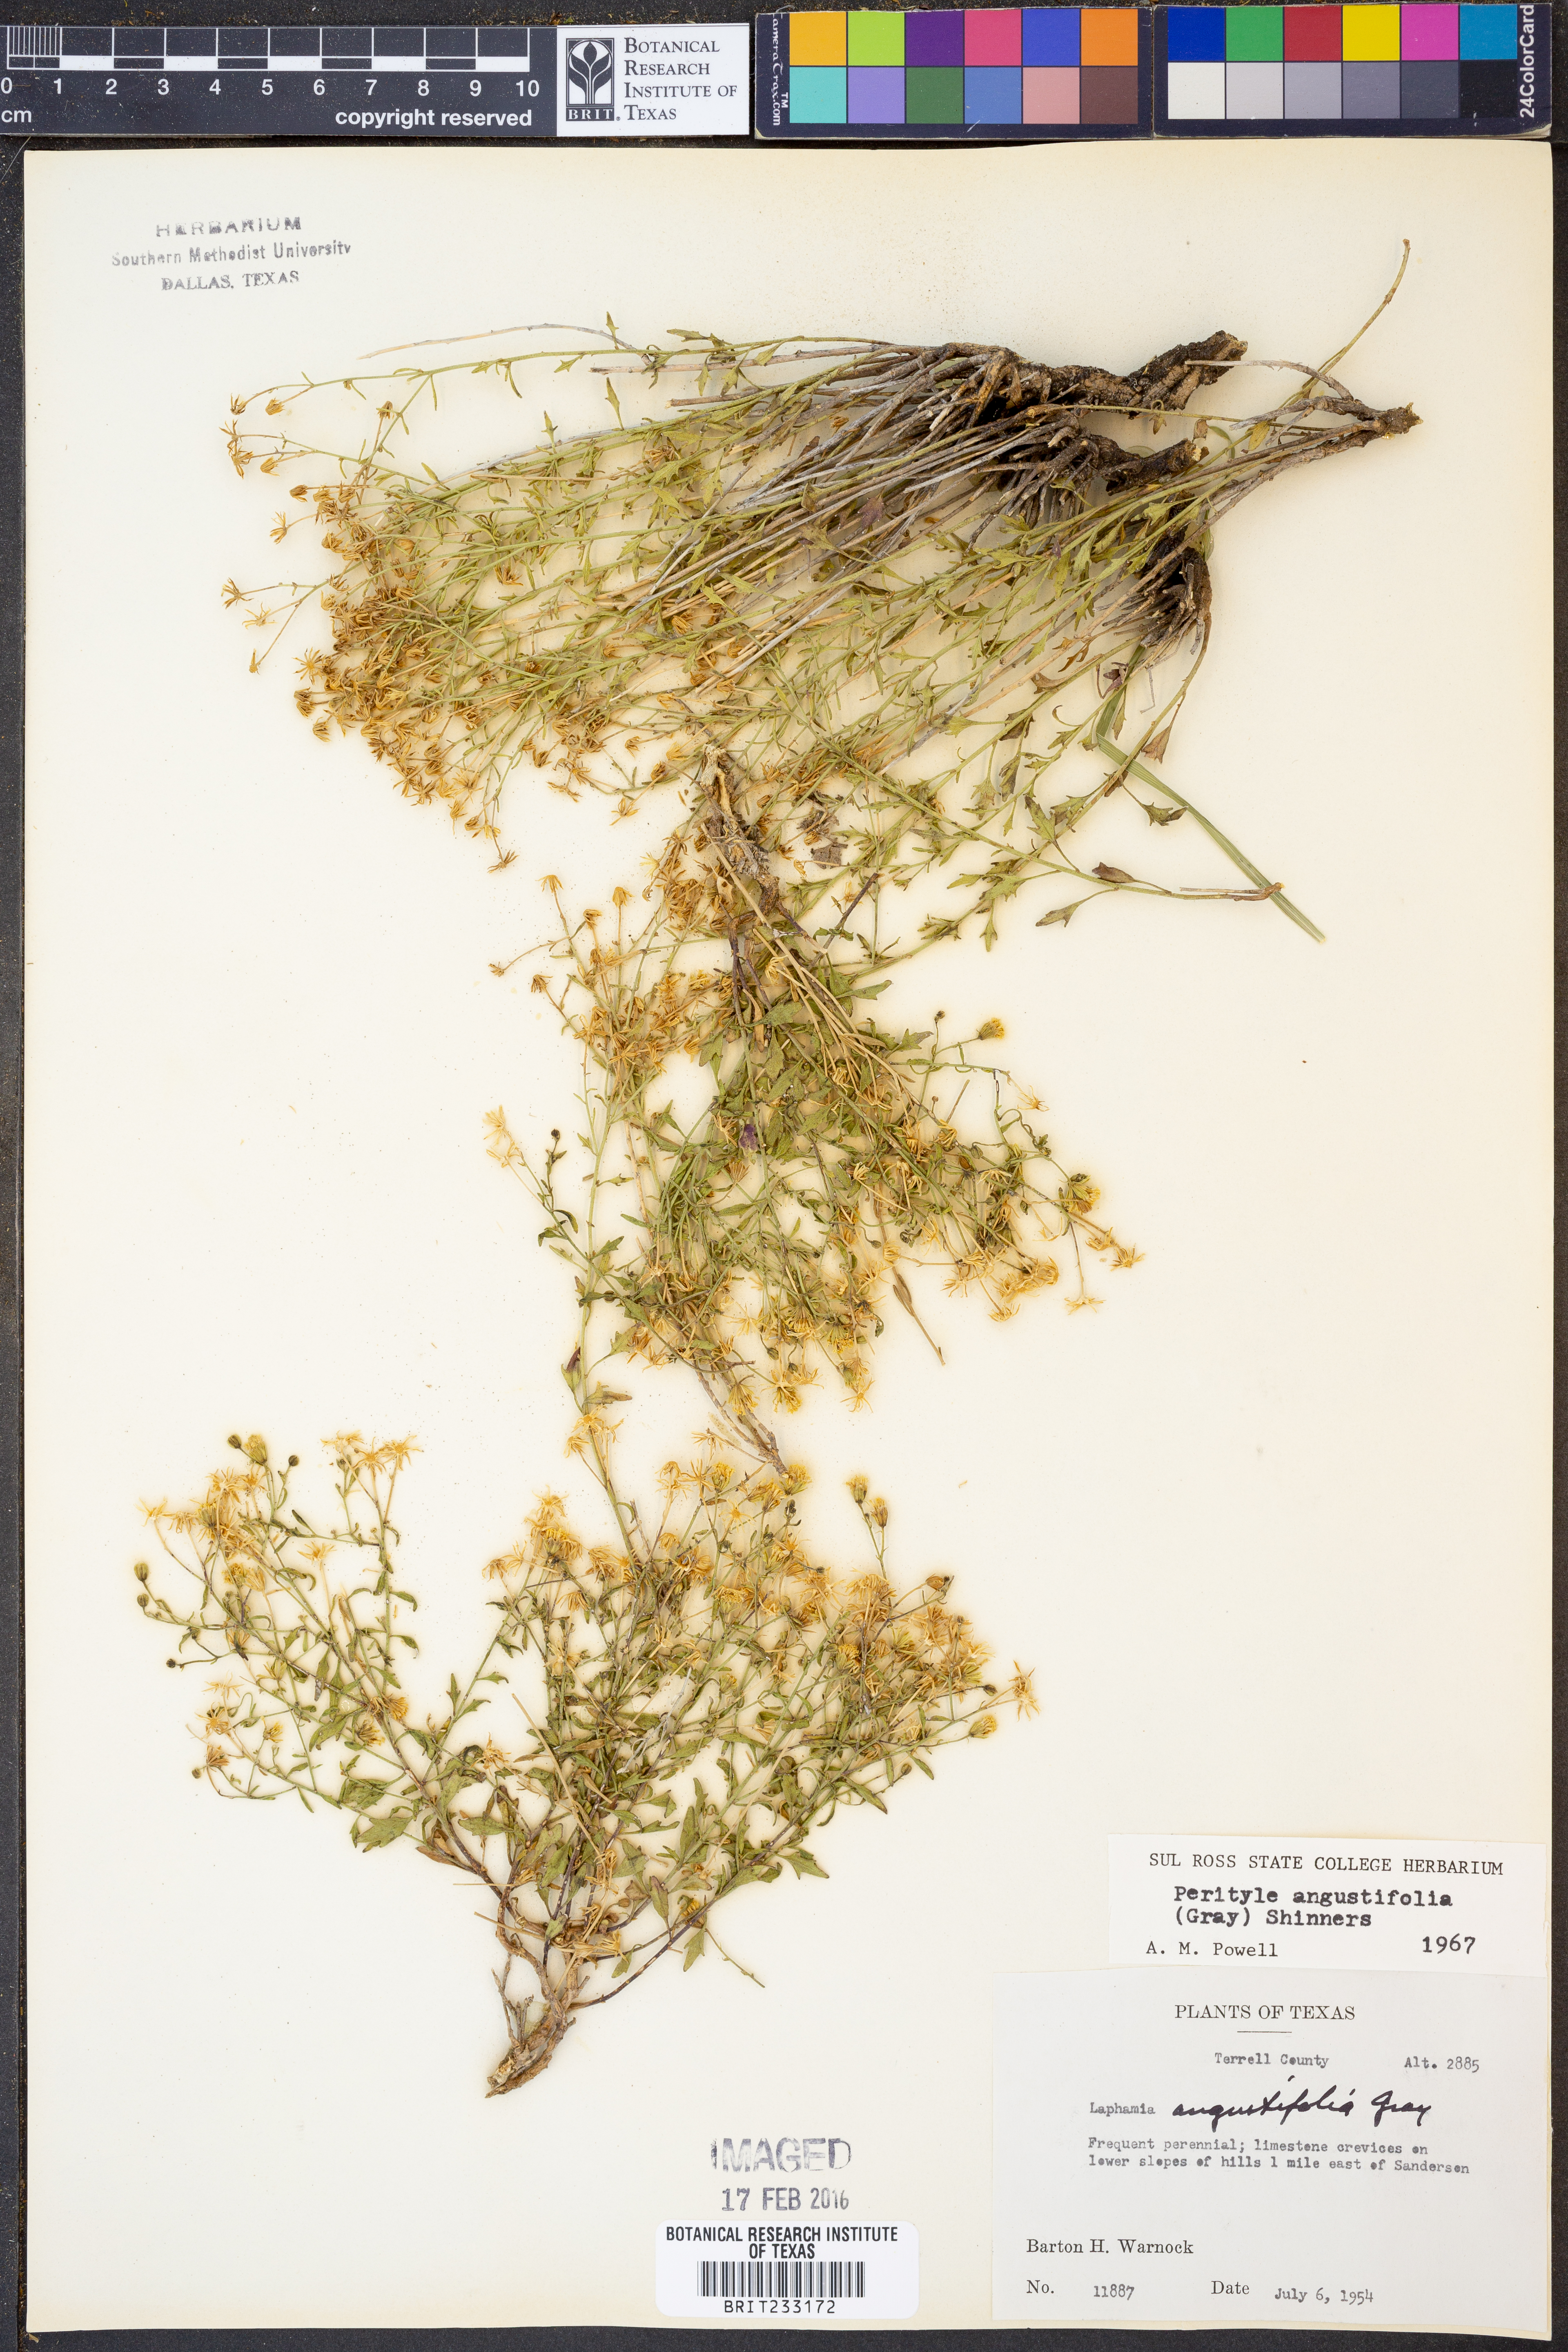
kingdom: Plantae
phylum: Tracheophyta
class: Magnoliopsida
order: Asterales
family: Asteraceae
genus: Laphamia
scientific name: Laphamia angustifolia
